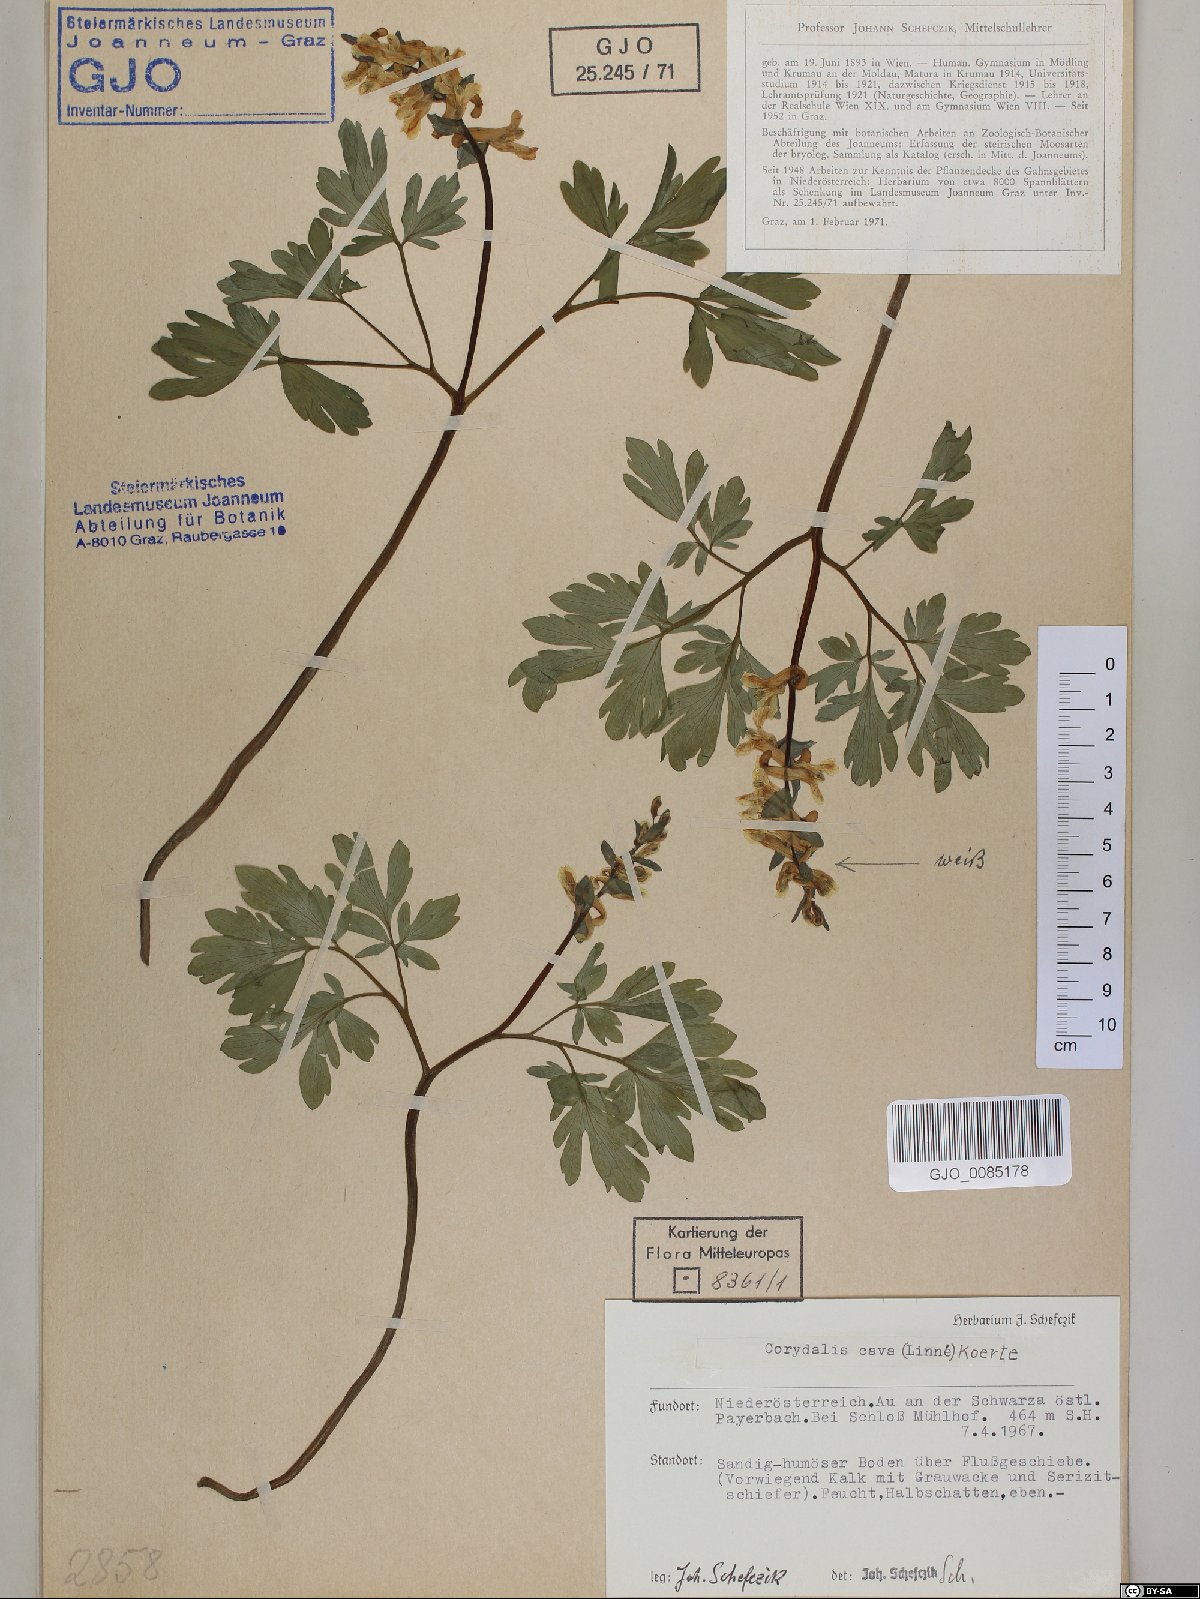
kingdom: Plantae
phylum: Tracheophyta
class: Magnoliopsida
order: Ranunculales
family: Papaveraceae
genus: Corydalis
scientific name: Corydalis cava
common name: Hollowroot
